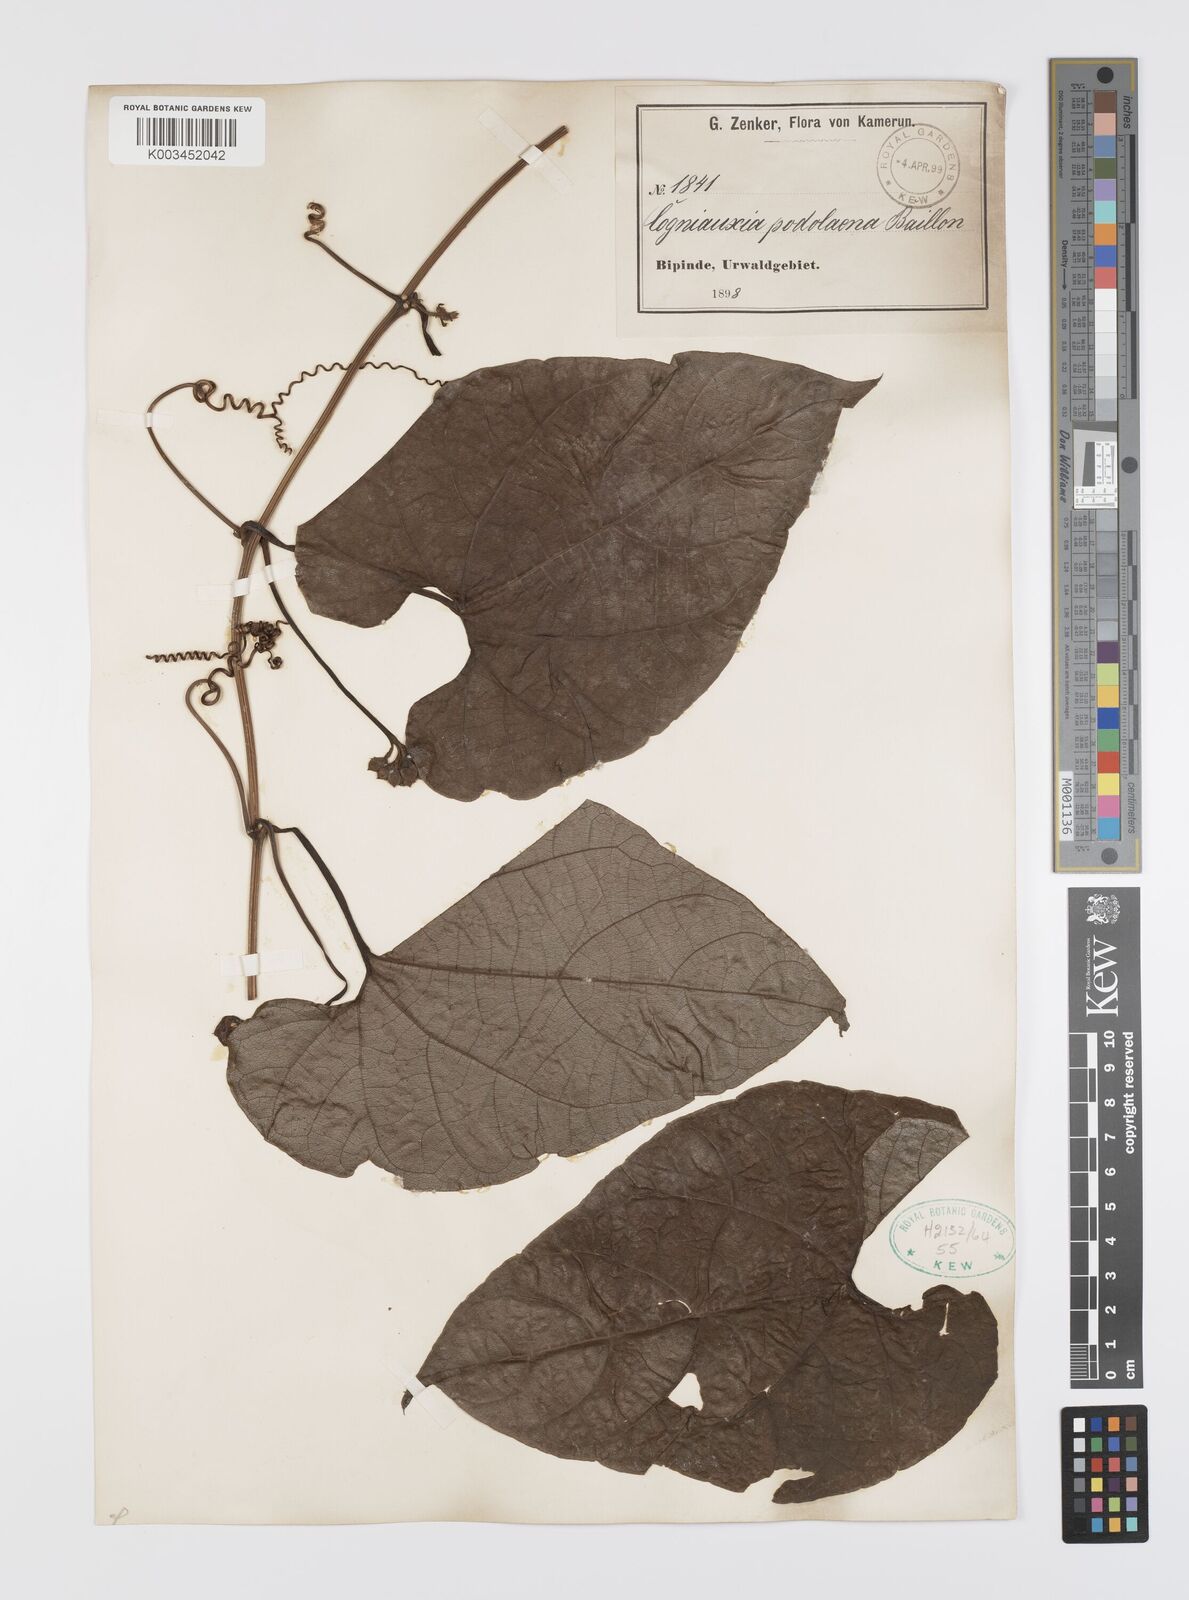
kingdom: Plantae
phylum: Tracheophyta
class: Magnoliopsida
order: Cucurbitales
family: Cucurbitaceae
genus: Cogniauxia
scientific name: Cogniauxia podolaena
